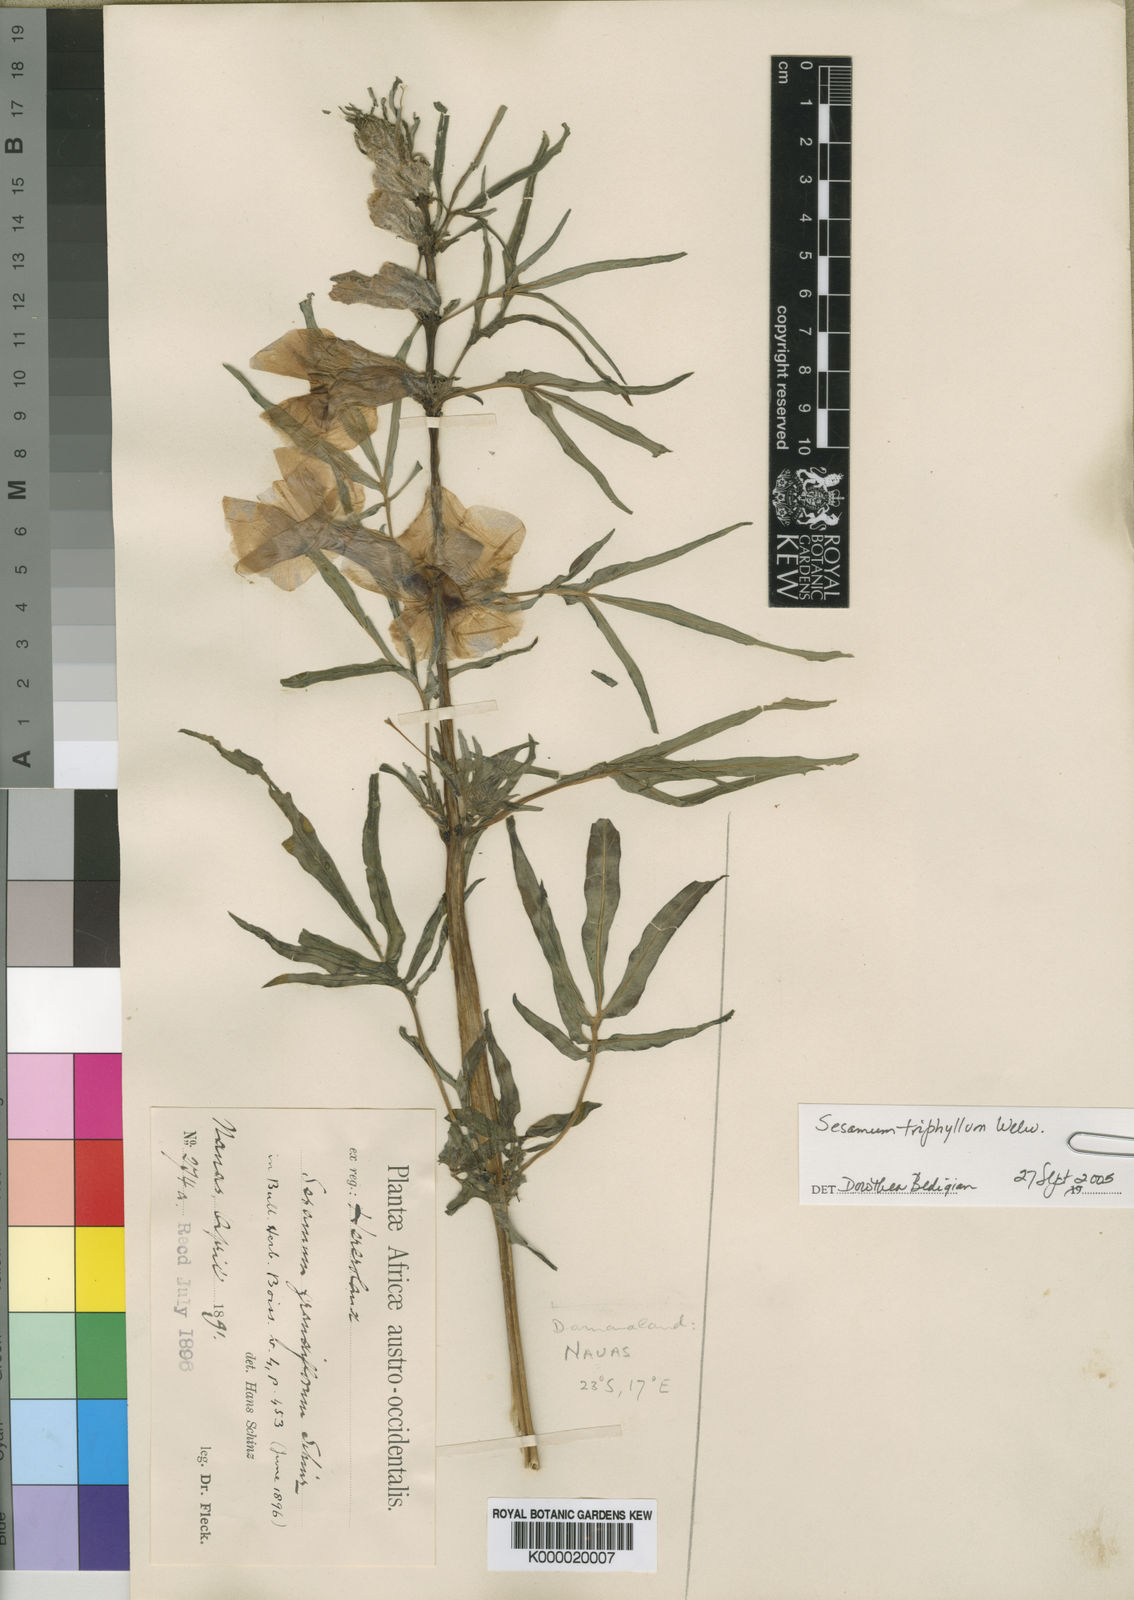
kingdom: Plantae
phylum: Tracheophyta
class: Magnoliopsida
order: Lamiales
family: Pedaliaceae
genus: Sesamum
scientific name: Sesamum triphyllum
